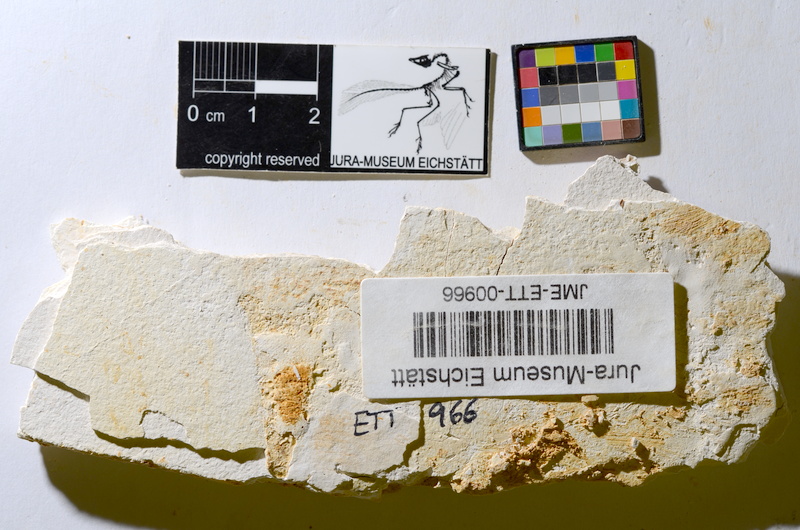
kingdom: Animalia
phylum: Chordata
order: Salmoniformes
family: Orthogonikleithridae
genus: Orthogonikleithrus
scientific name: Orthogonikleithrus hoelli
